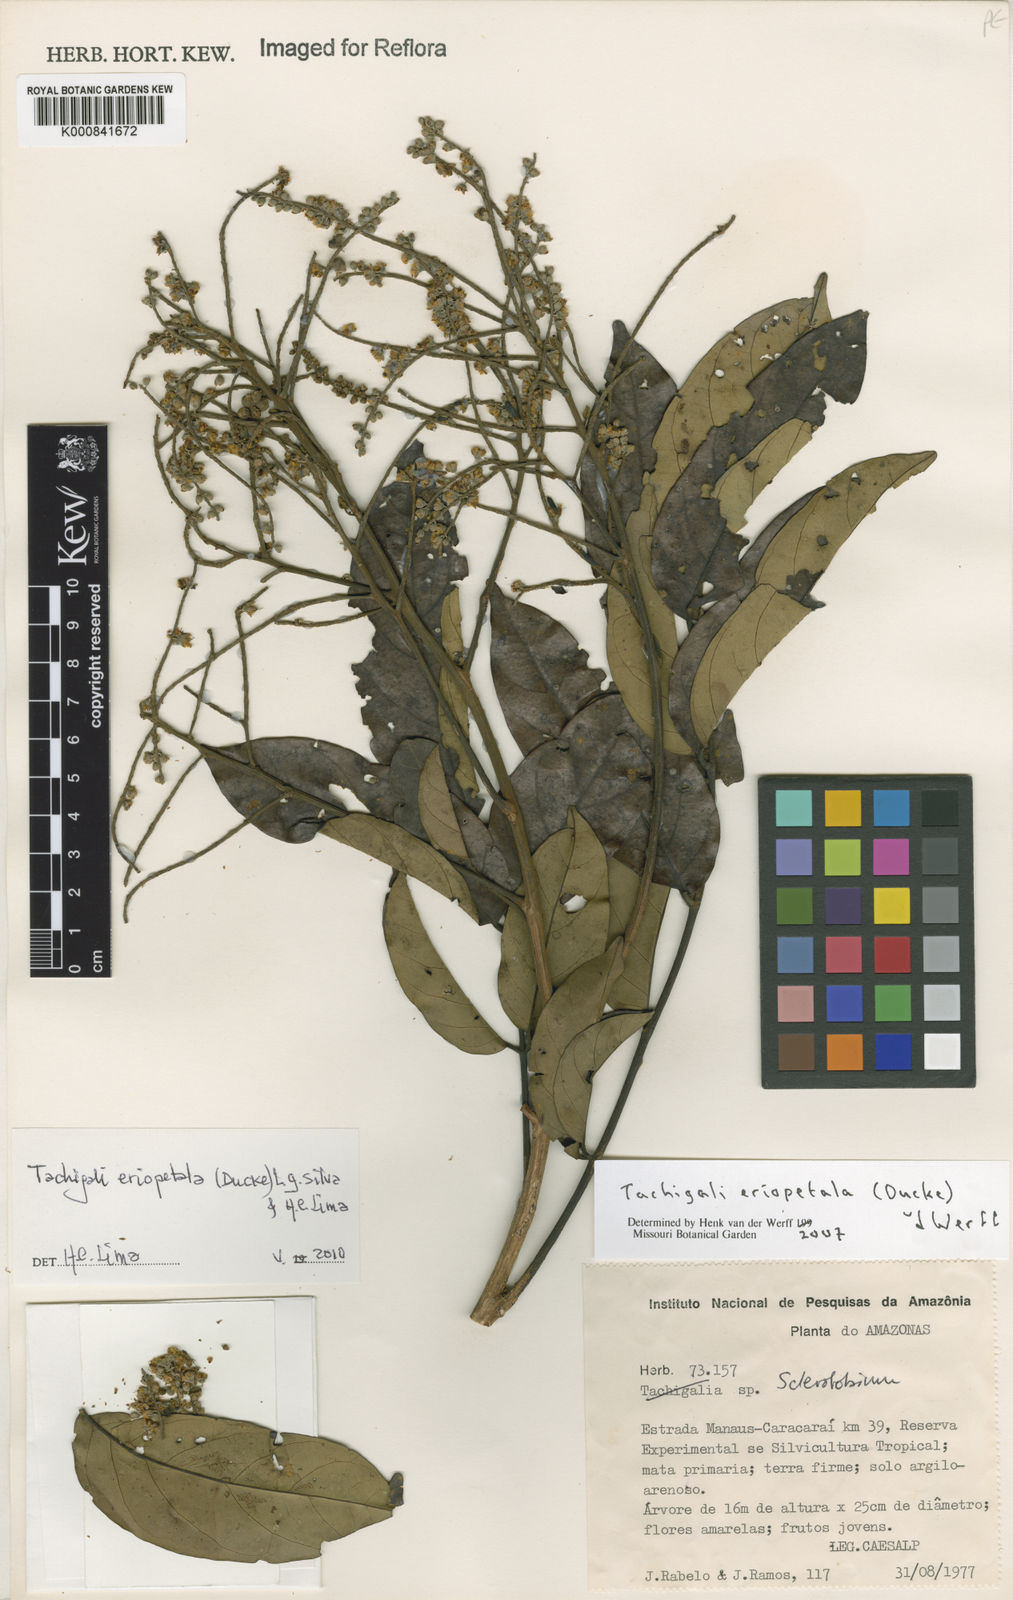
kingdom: Plantae
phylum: Tracheophyta
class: Magnoliopsida
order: Fabales
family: Fabaceae
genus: Tachigali
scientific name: Tachigali eriopetala
